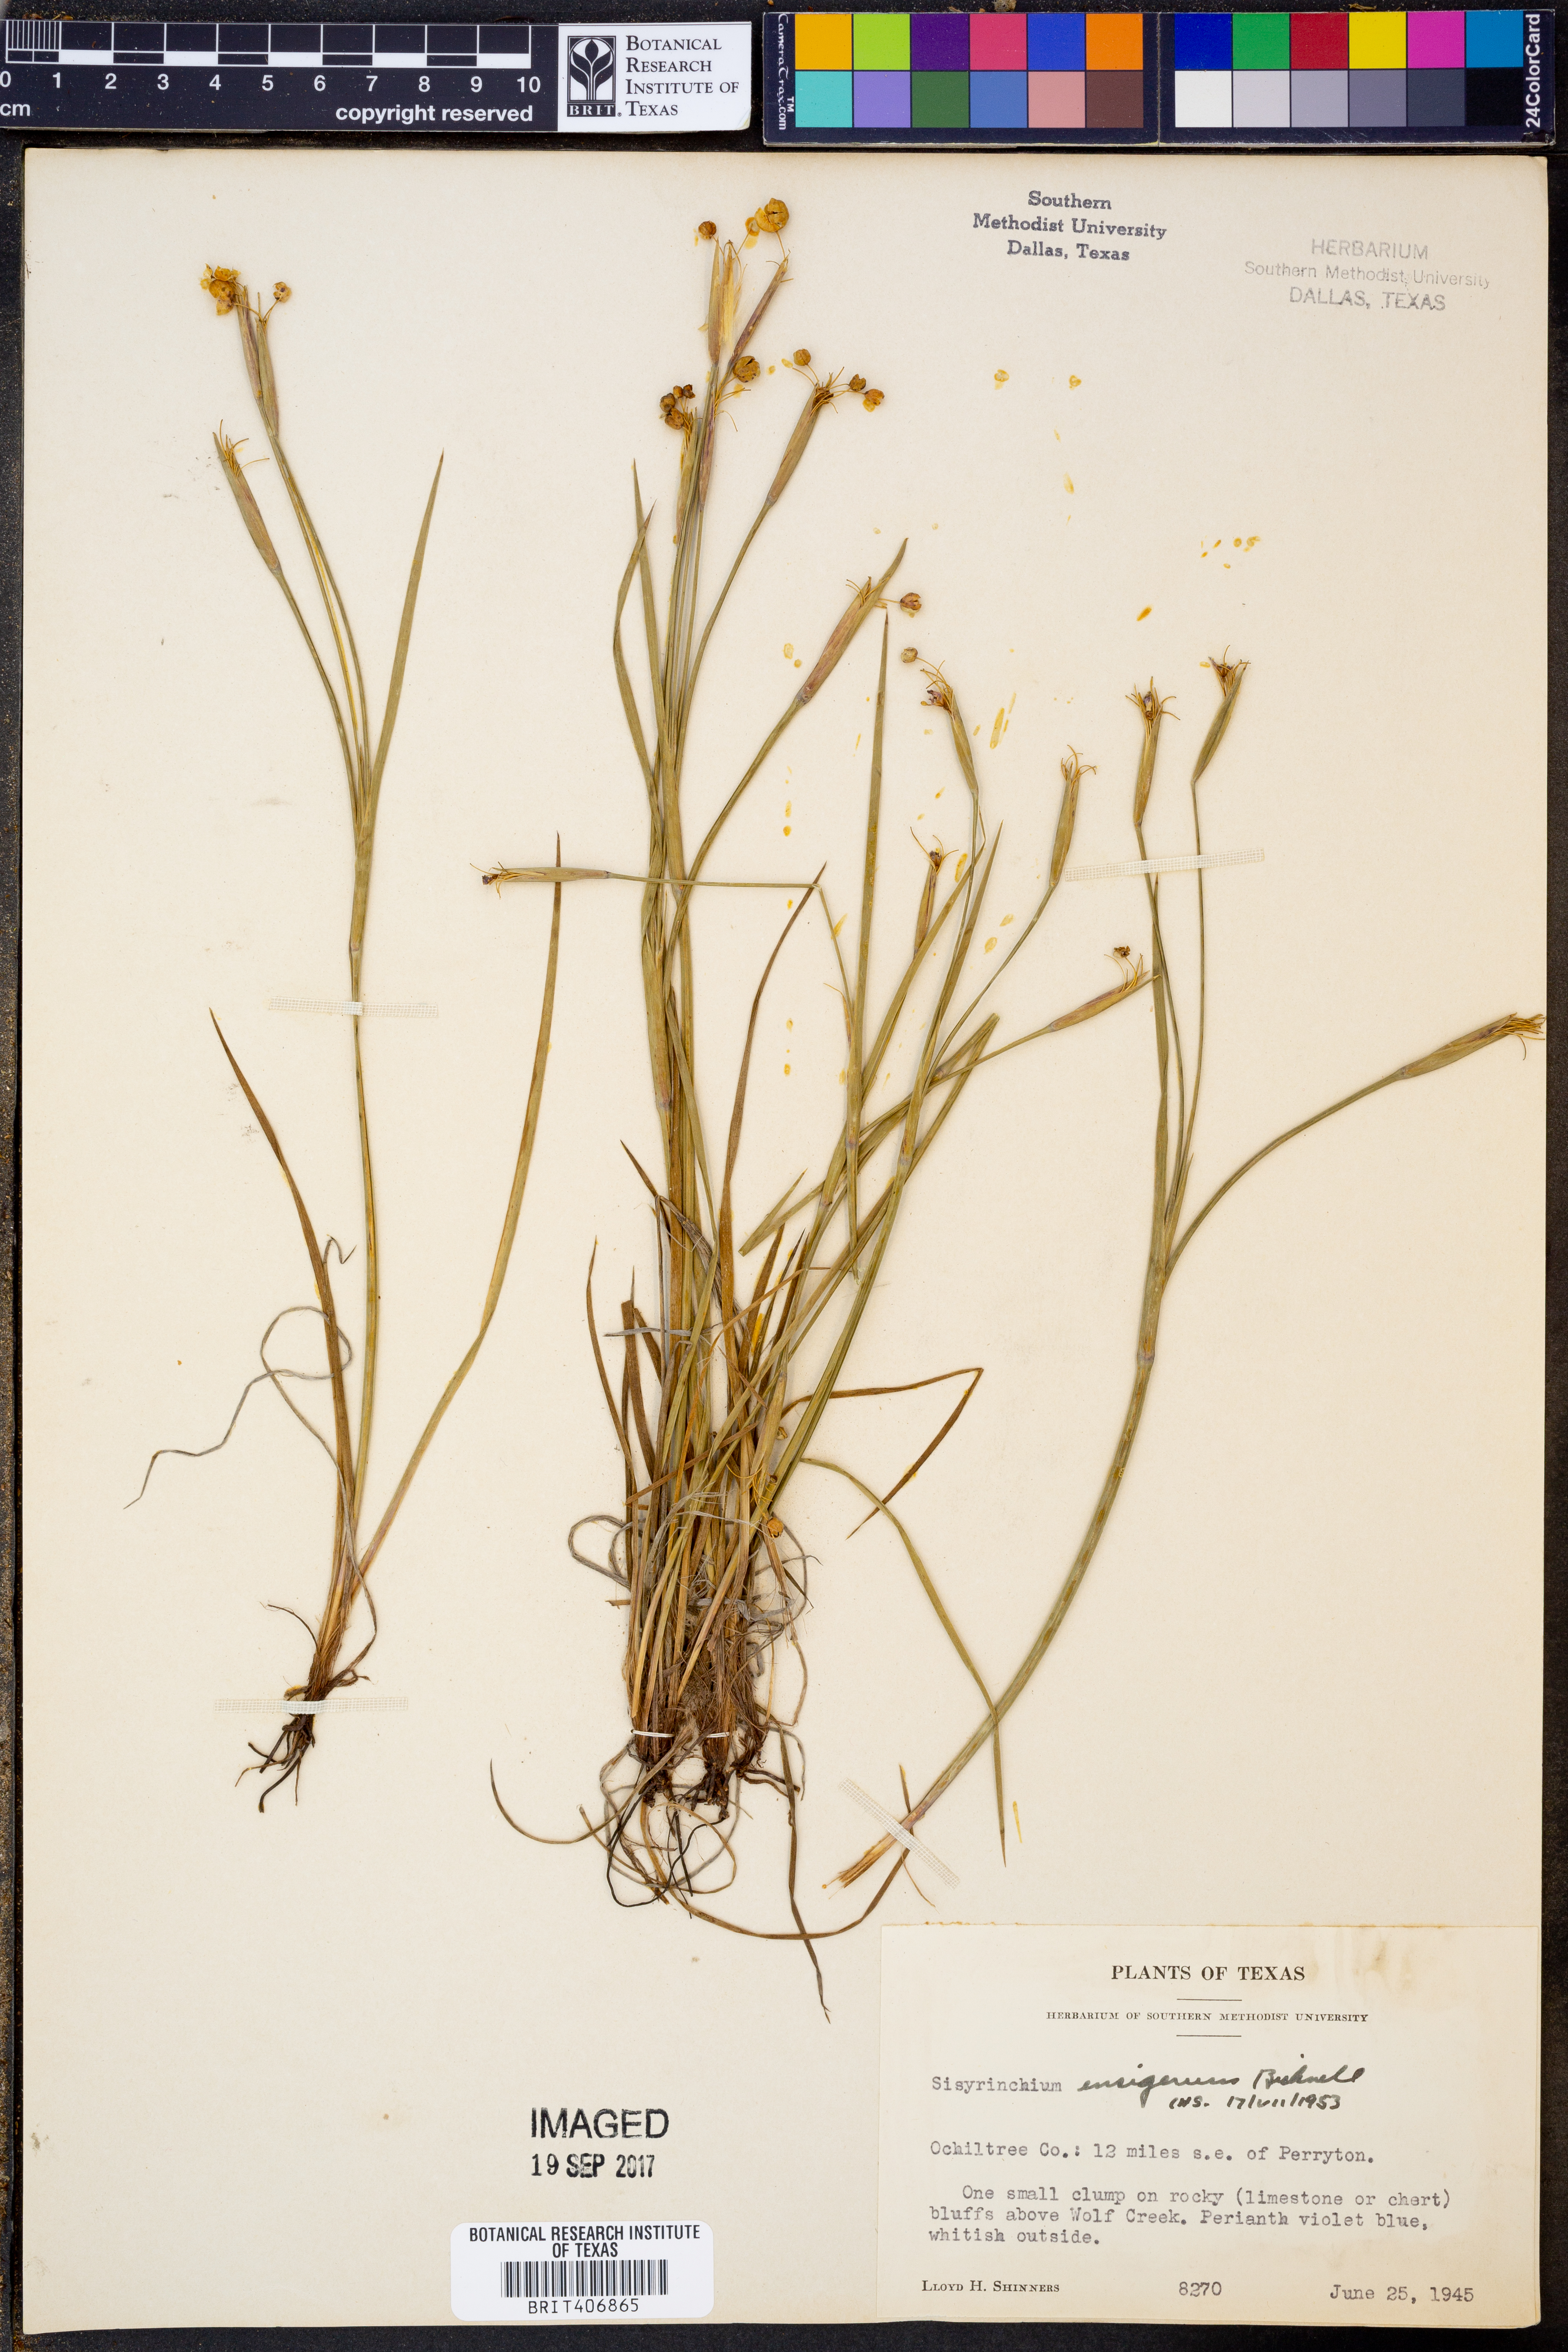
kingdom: Plantae
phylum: Tracheophyta
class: Liliopsida
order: Asparagales
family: Iridaceae
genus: Sisyrinchium
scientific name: Sisyrinchium ensigerum
